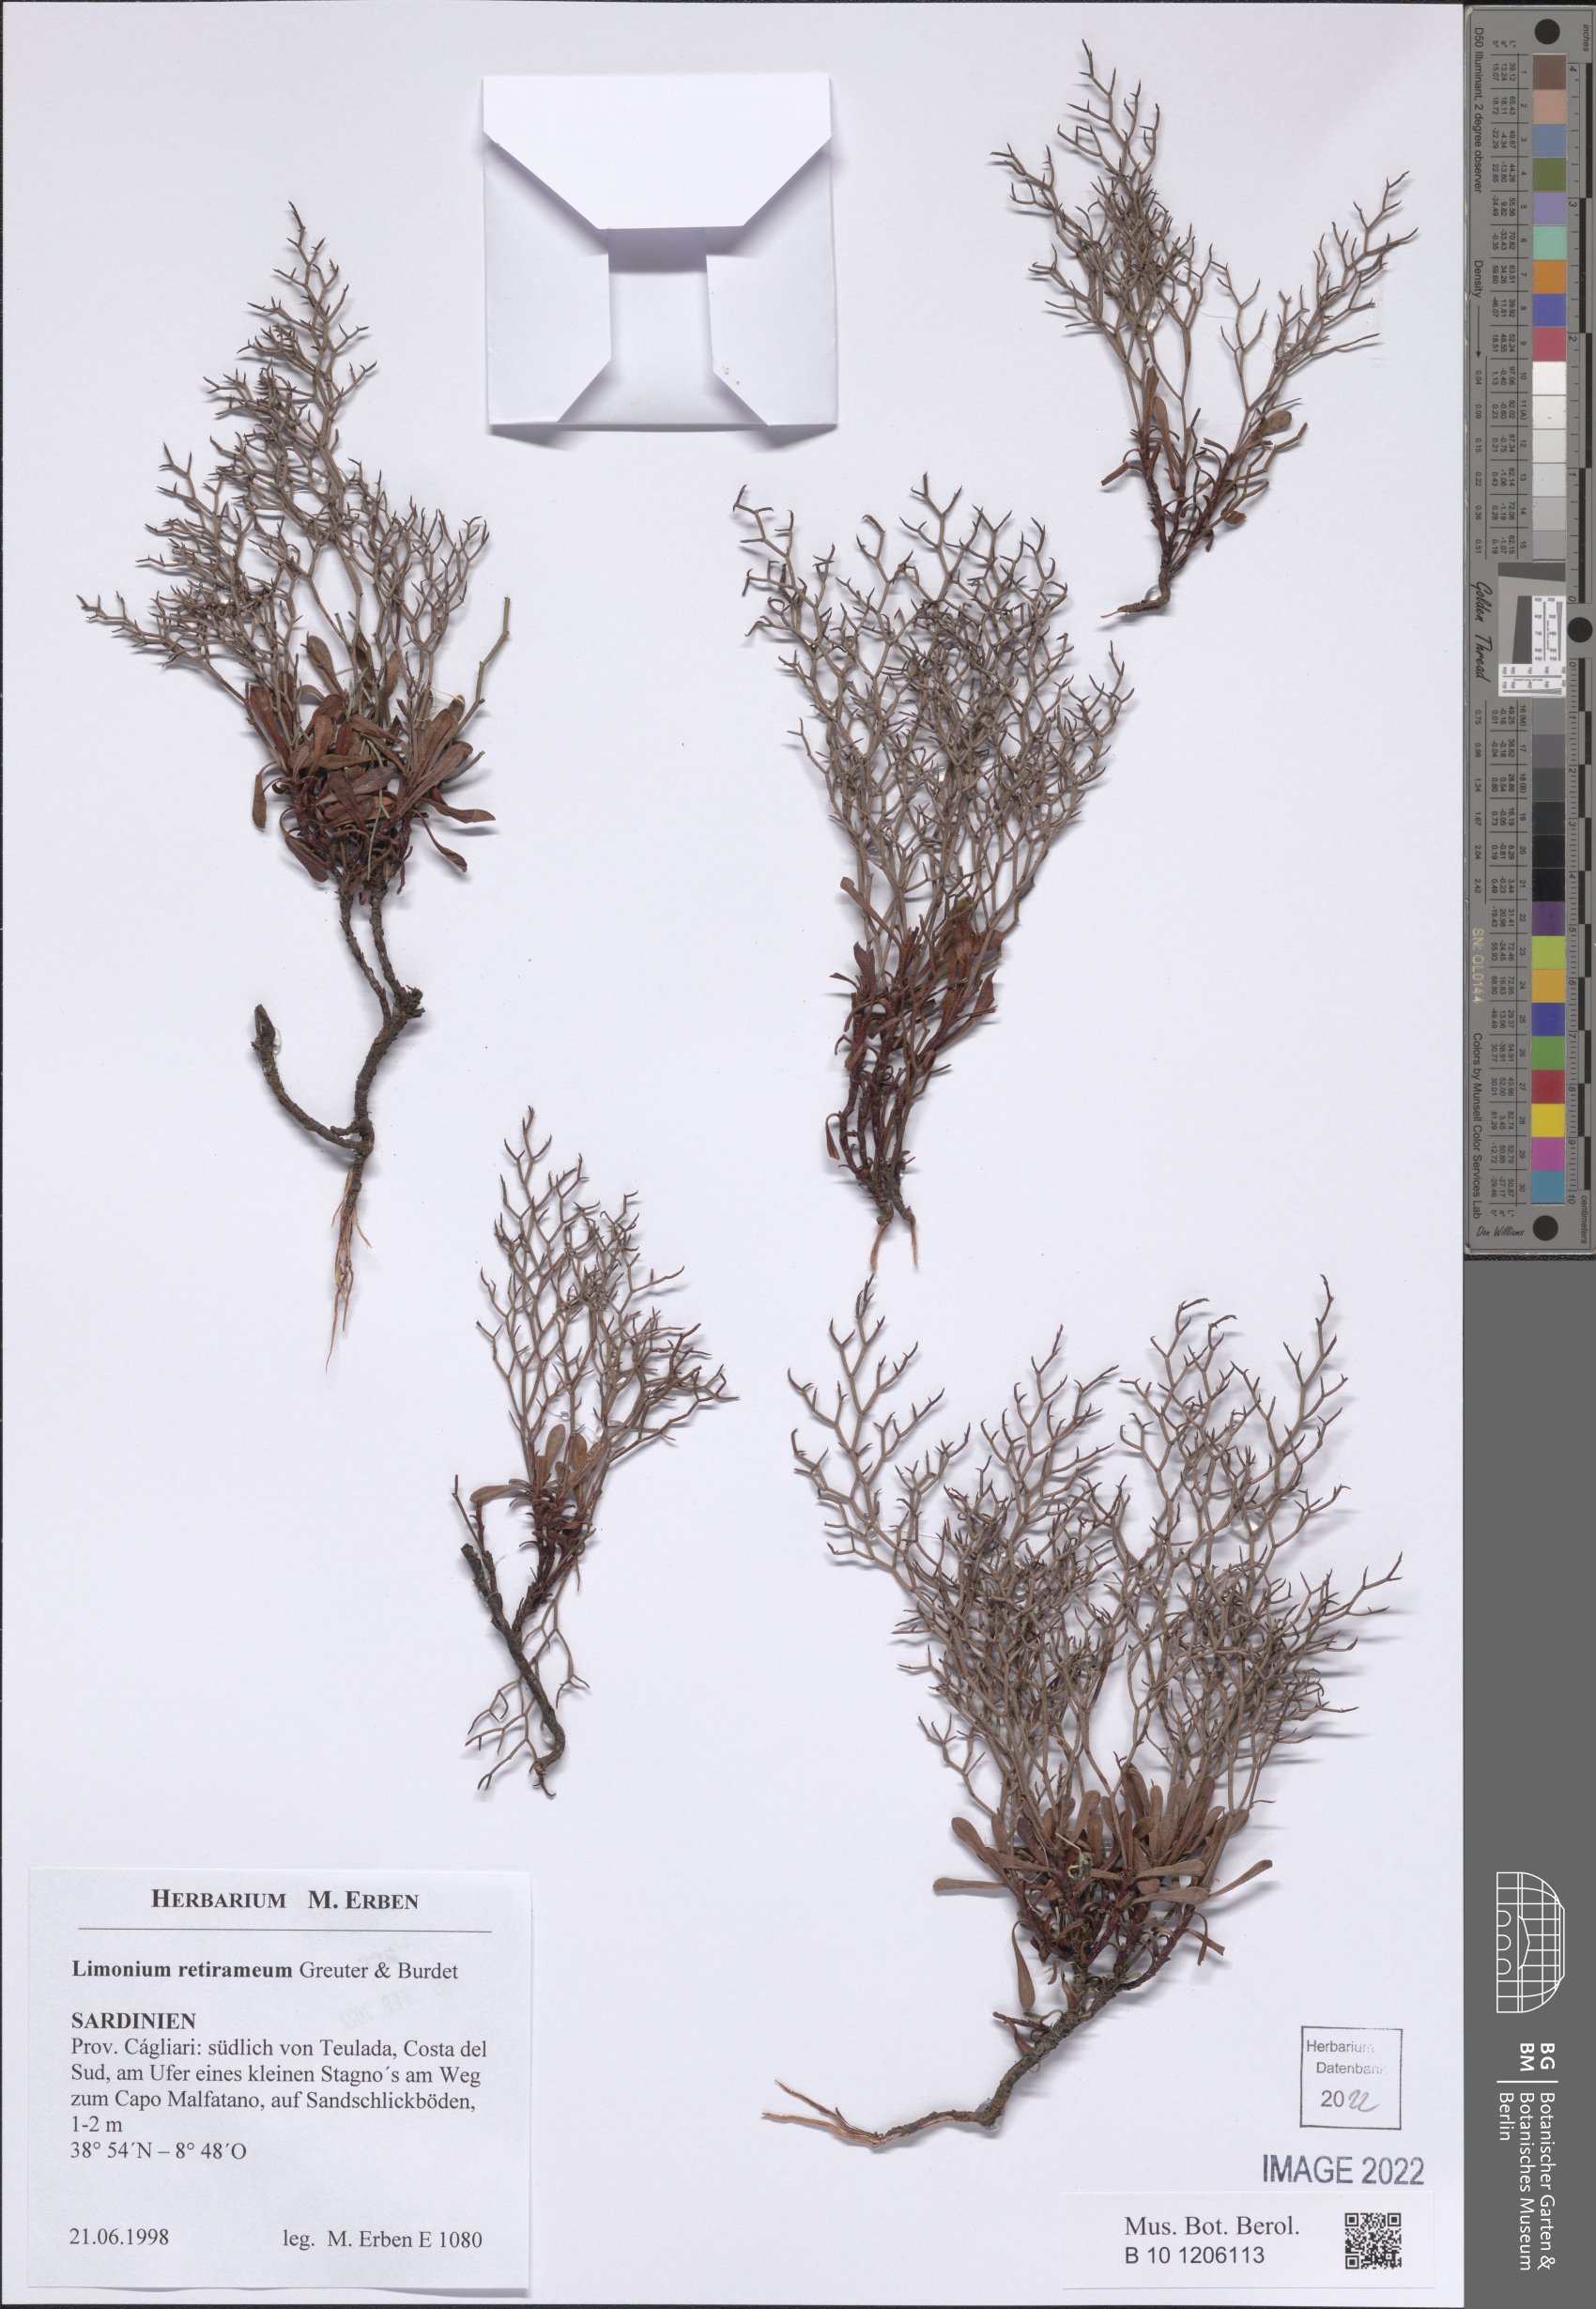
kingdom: Plantae
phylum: Tracheophyta
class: Magnoliopsida
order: Caryophyllales
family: Plumbaginaceae
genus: Limonium
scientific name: Limonium retirameum
